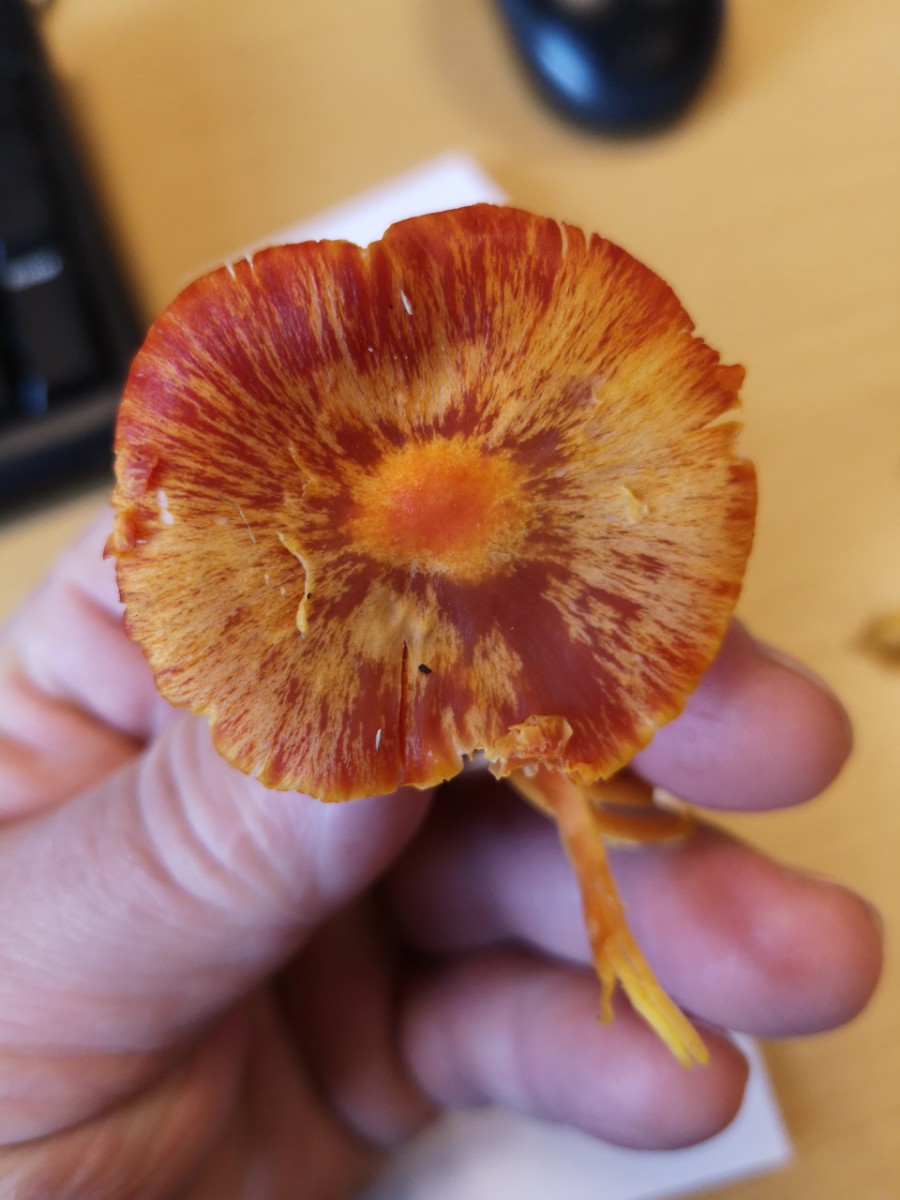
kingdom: Fungi
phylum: Basidiomycota
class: Agaricomycetes
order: Agaricales
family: Hygrophoraceae
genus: Hygrocybe
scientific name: Hygrocybe coccinea
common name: cinnober-vokshat
